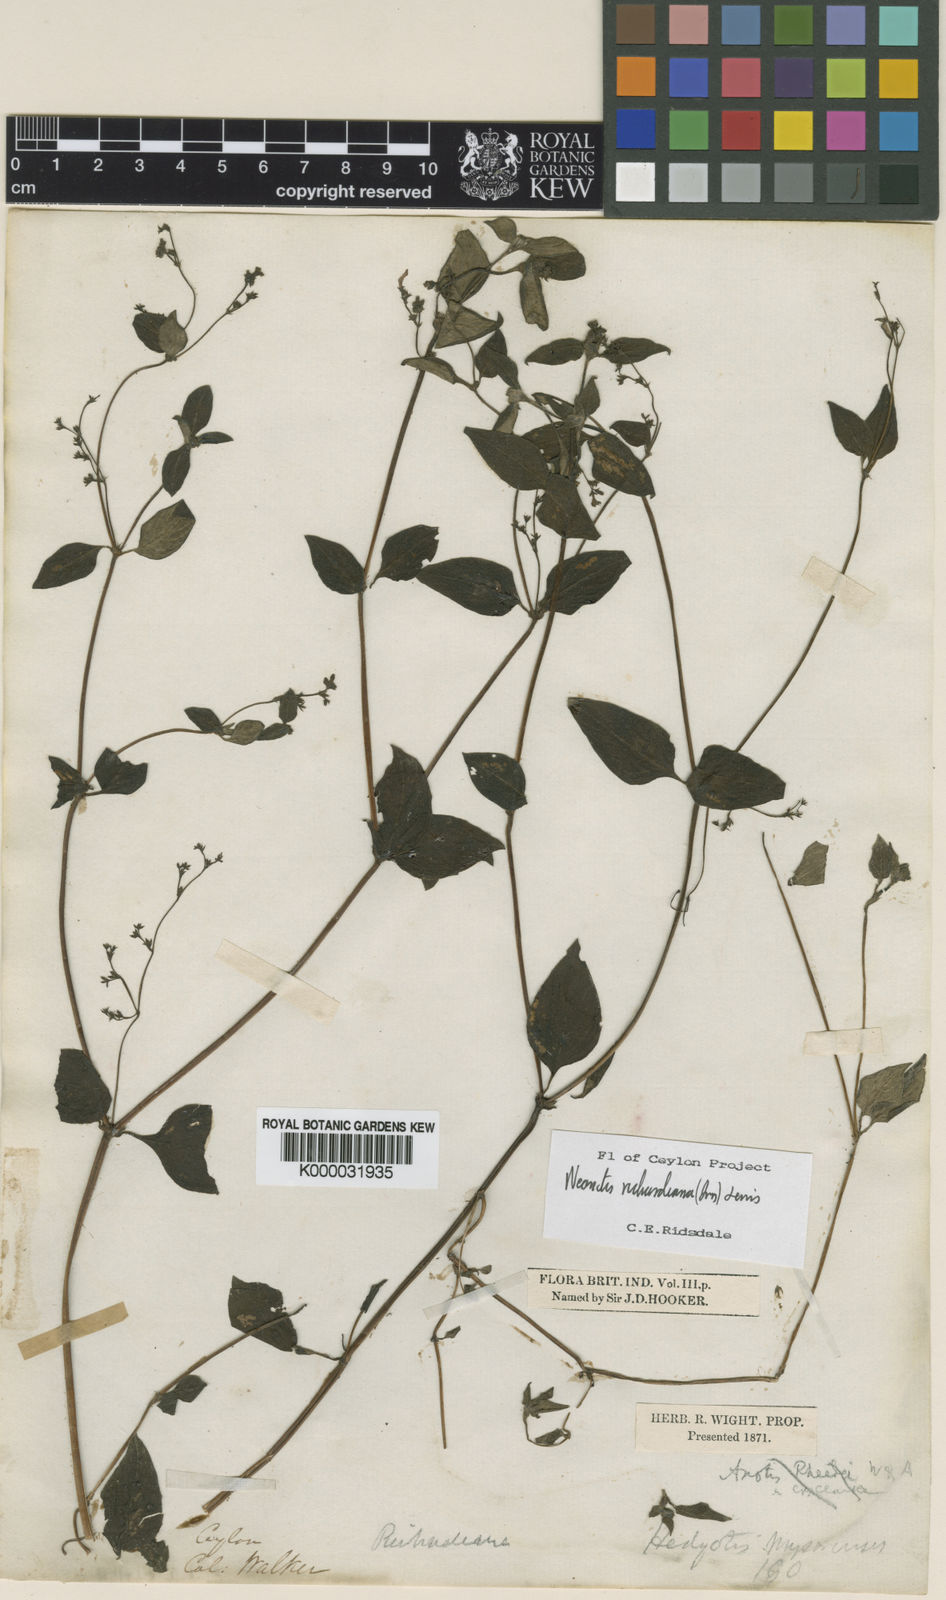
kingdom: Plantae
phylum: Tracheophyta
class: Magnoliopsida
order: Gentianales
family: Rubiaceae
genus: Neanotis
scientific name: Neanotis richardiana
